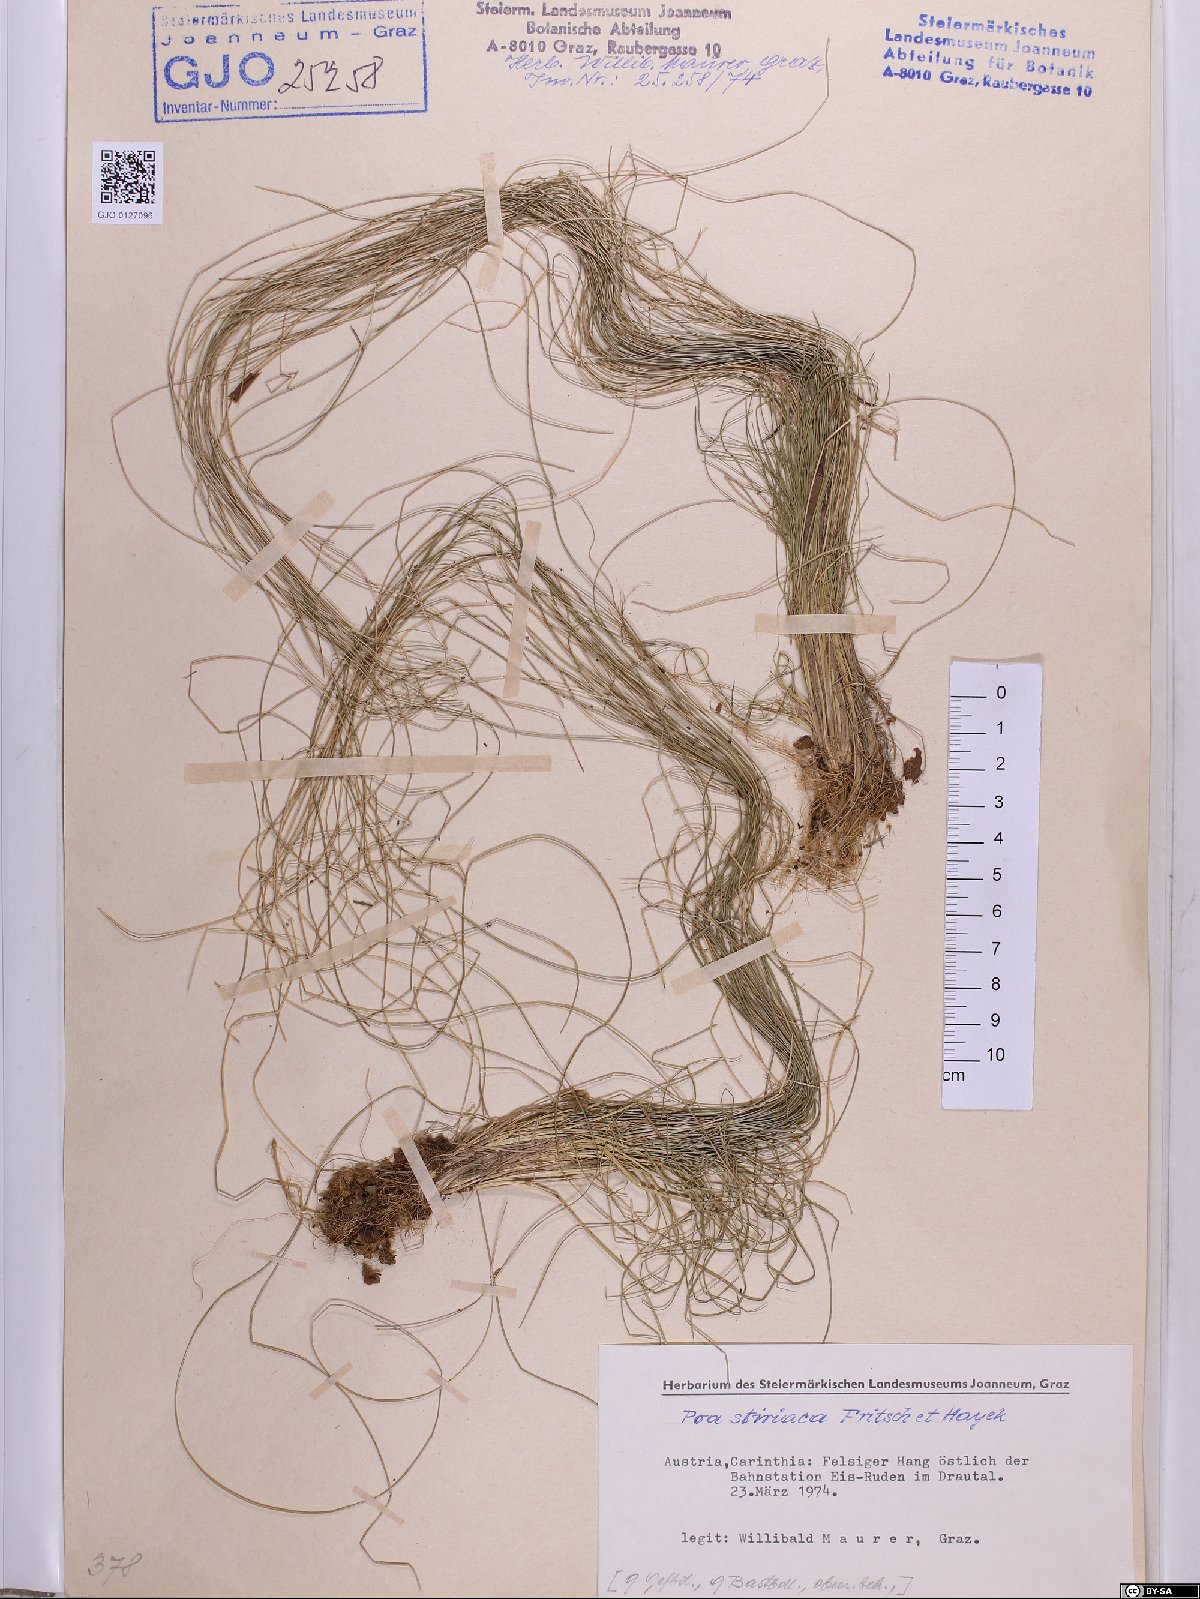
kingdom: Plantae
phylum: Tracheophyta
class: Liliopsida
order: Poales
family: Poaceae
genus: Poa
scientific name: Poa stiriaca
